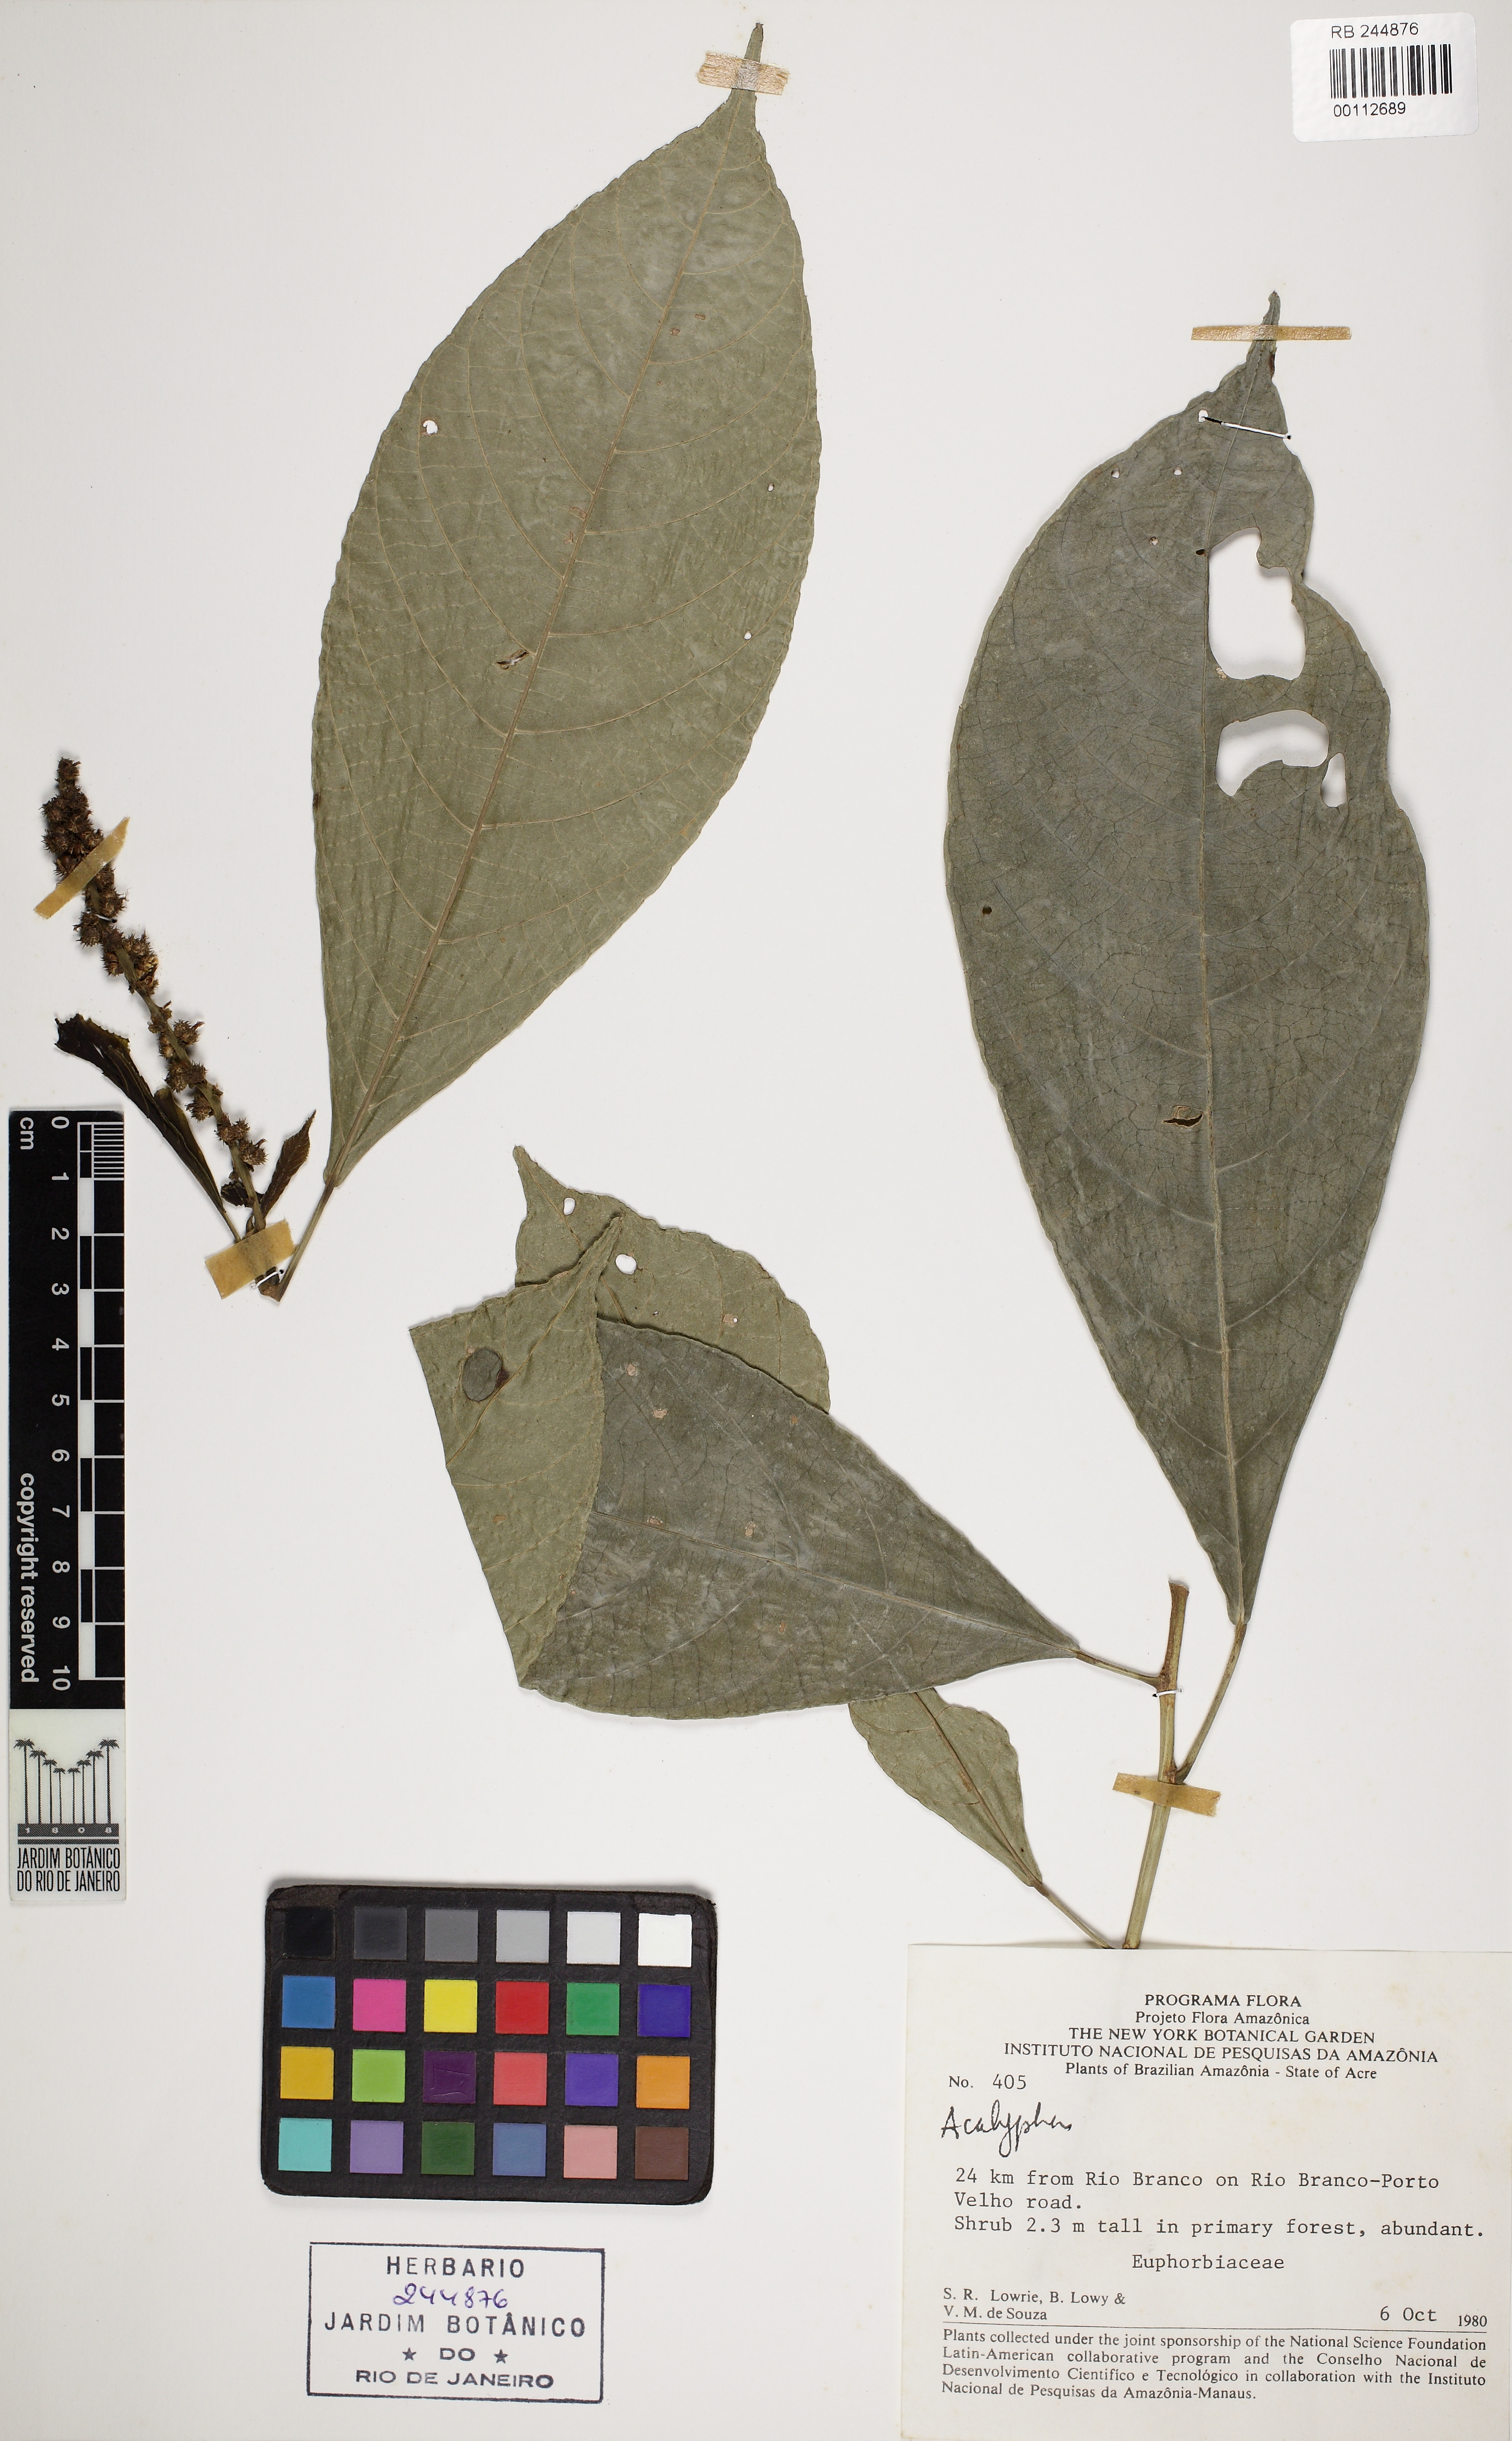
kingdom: Plantae
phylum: Tracheophyta
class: Magnoliopsida
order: Malpighiales
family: Euphorbiaceae
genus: Acalypha
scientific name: Acalypha cuneata
